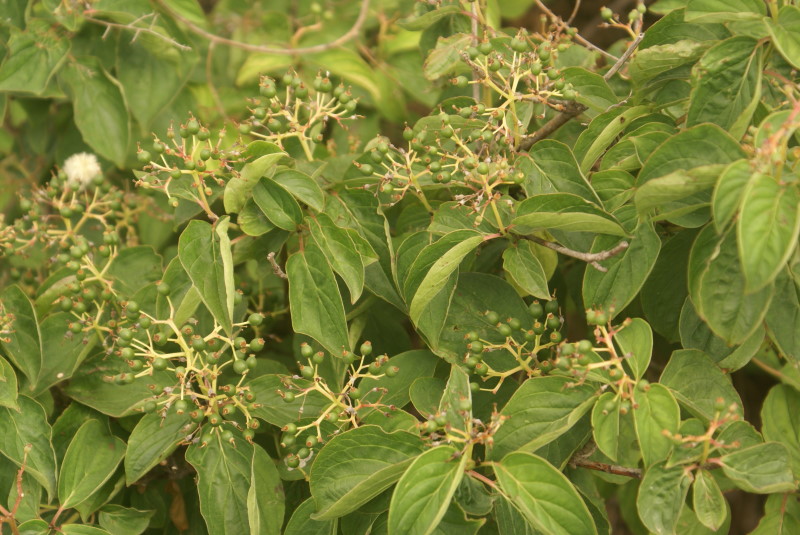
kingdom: Plantae
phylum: Tracheophyta
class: Magnoliopsida
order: Cornales
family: Cornaceae
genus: Cornus
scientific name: Cornus sanguinea
